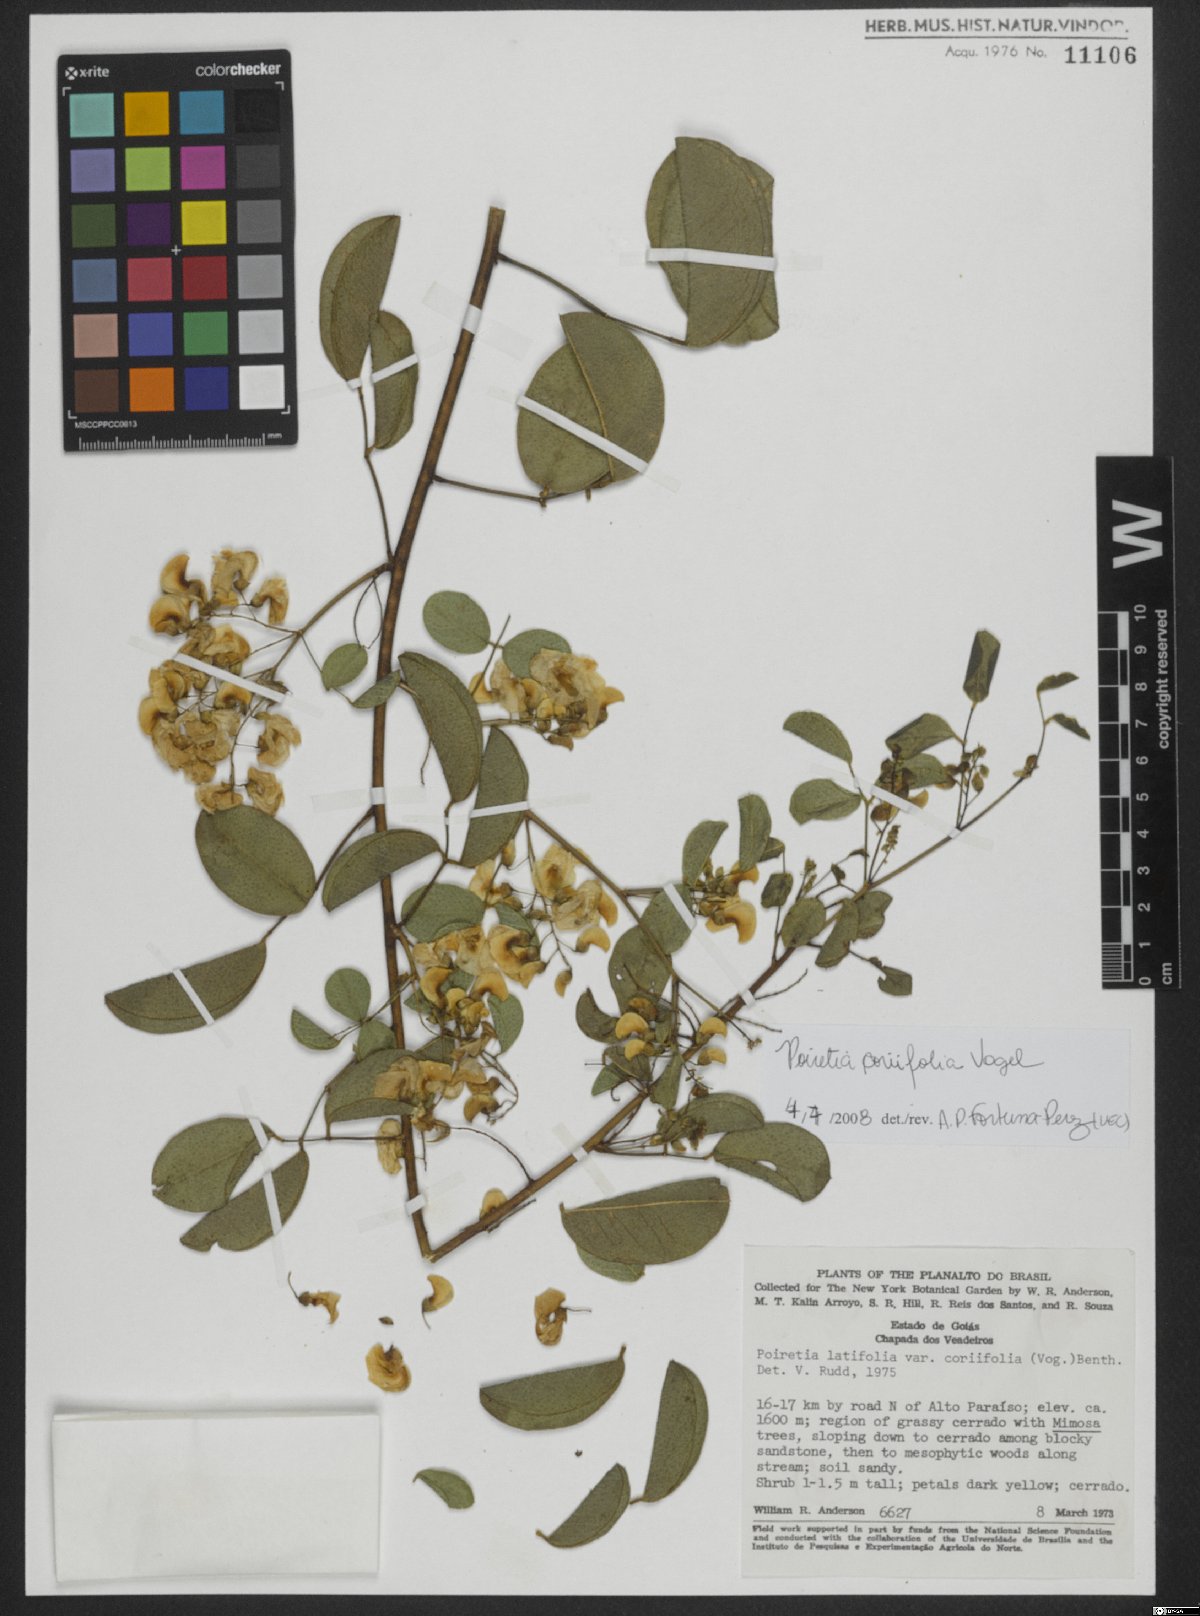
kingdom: Plantae
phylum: Tracheophyta
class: Magnoliopsida
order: Fabales
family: Fabaceae
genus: Poiretia
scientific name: Poiretia coriifolia
